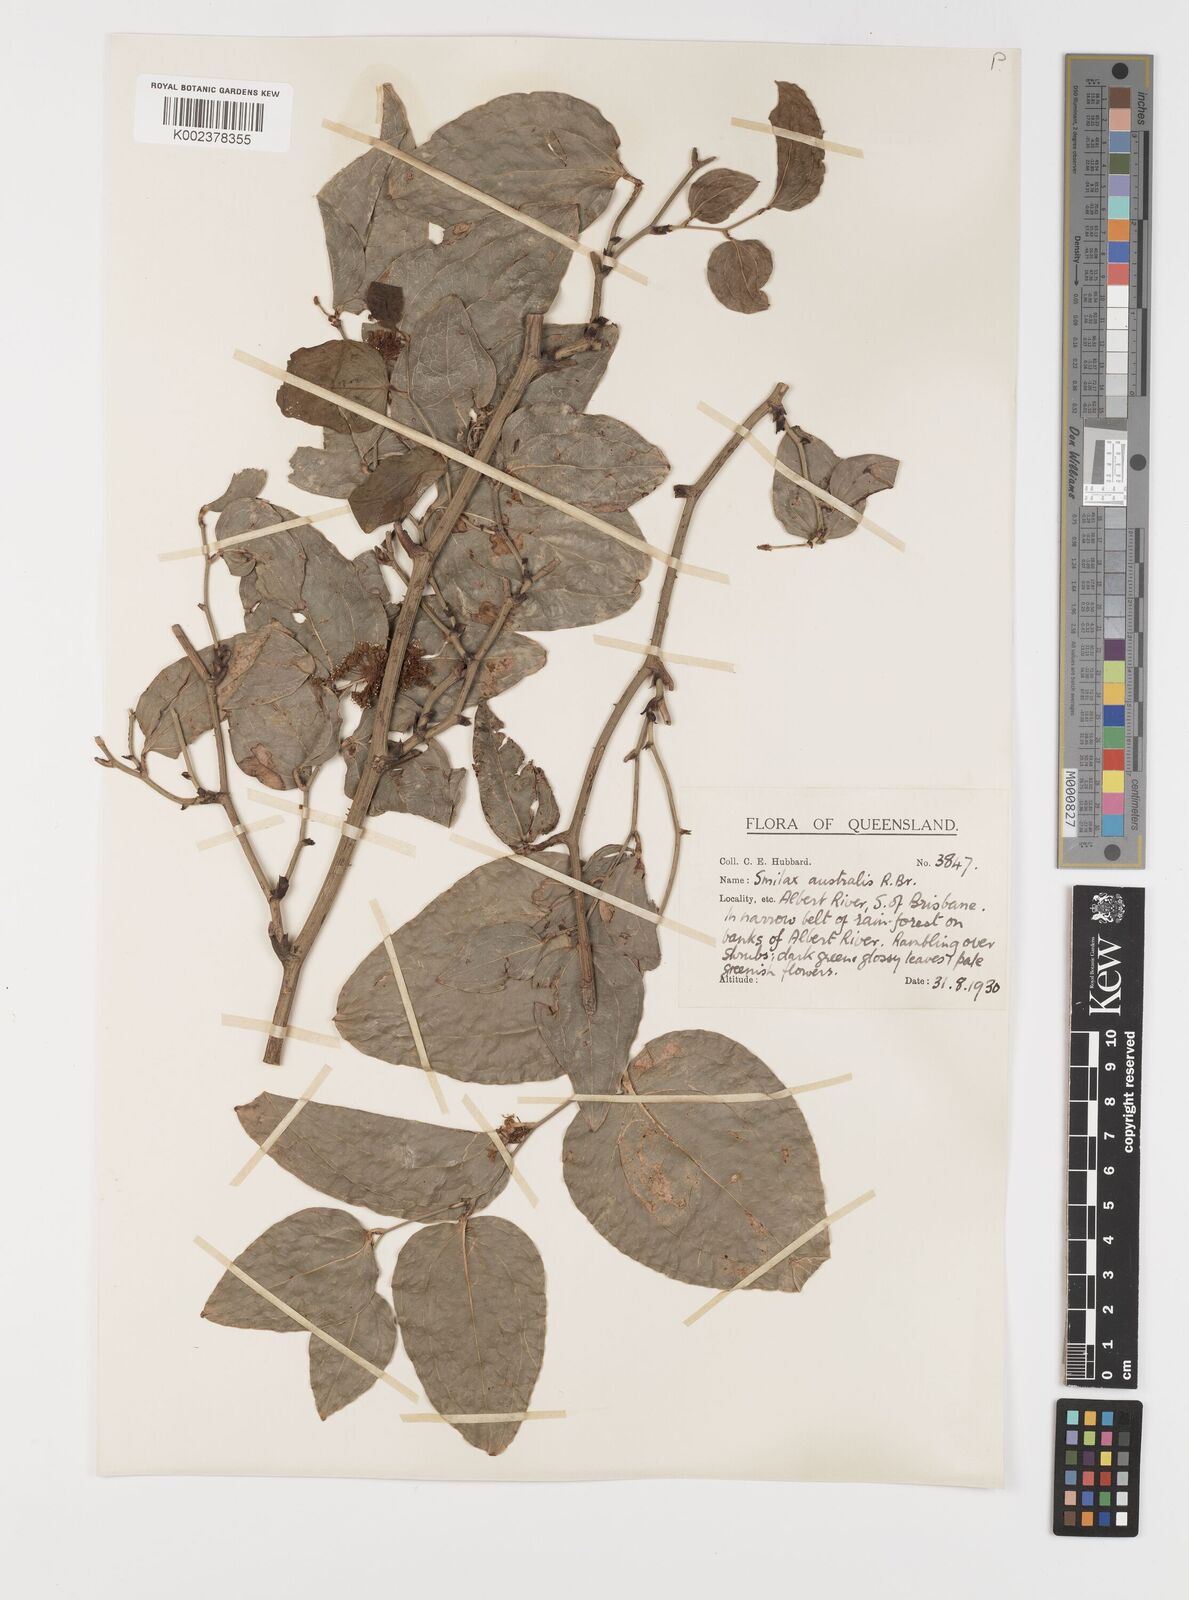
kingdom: Plantae
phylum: Tracheophyta
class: Liliopsida
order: Liliales
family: Smilacaceae
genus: Smilax
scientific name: Smilax australis
